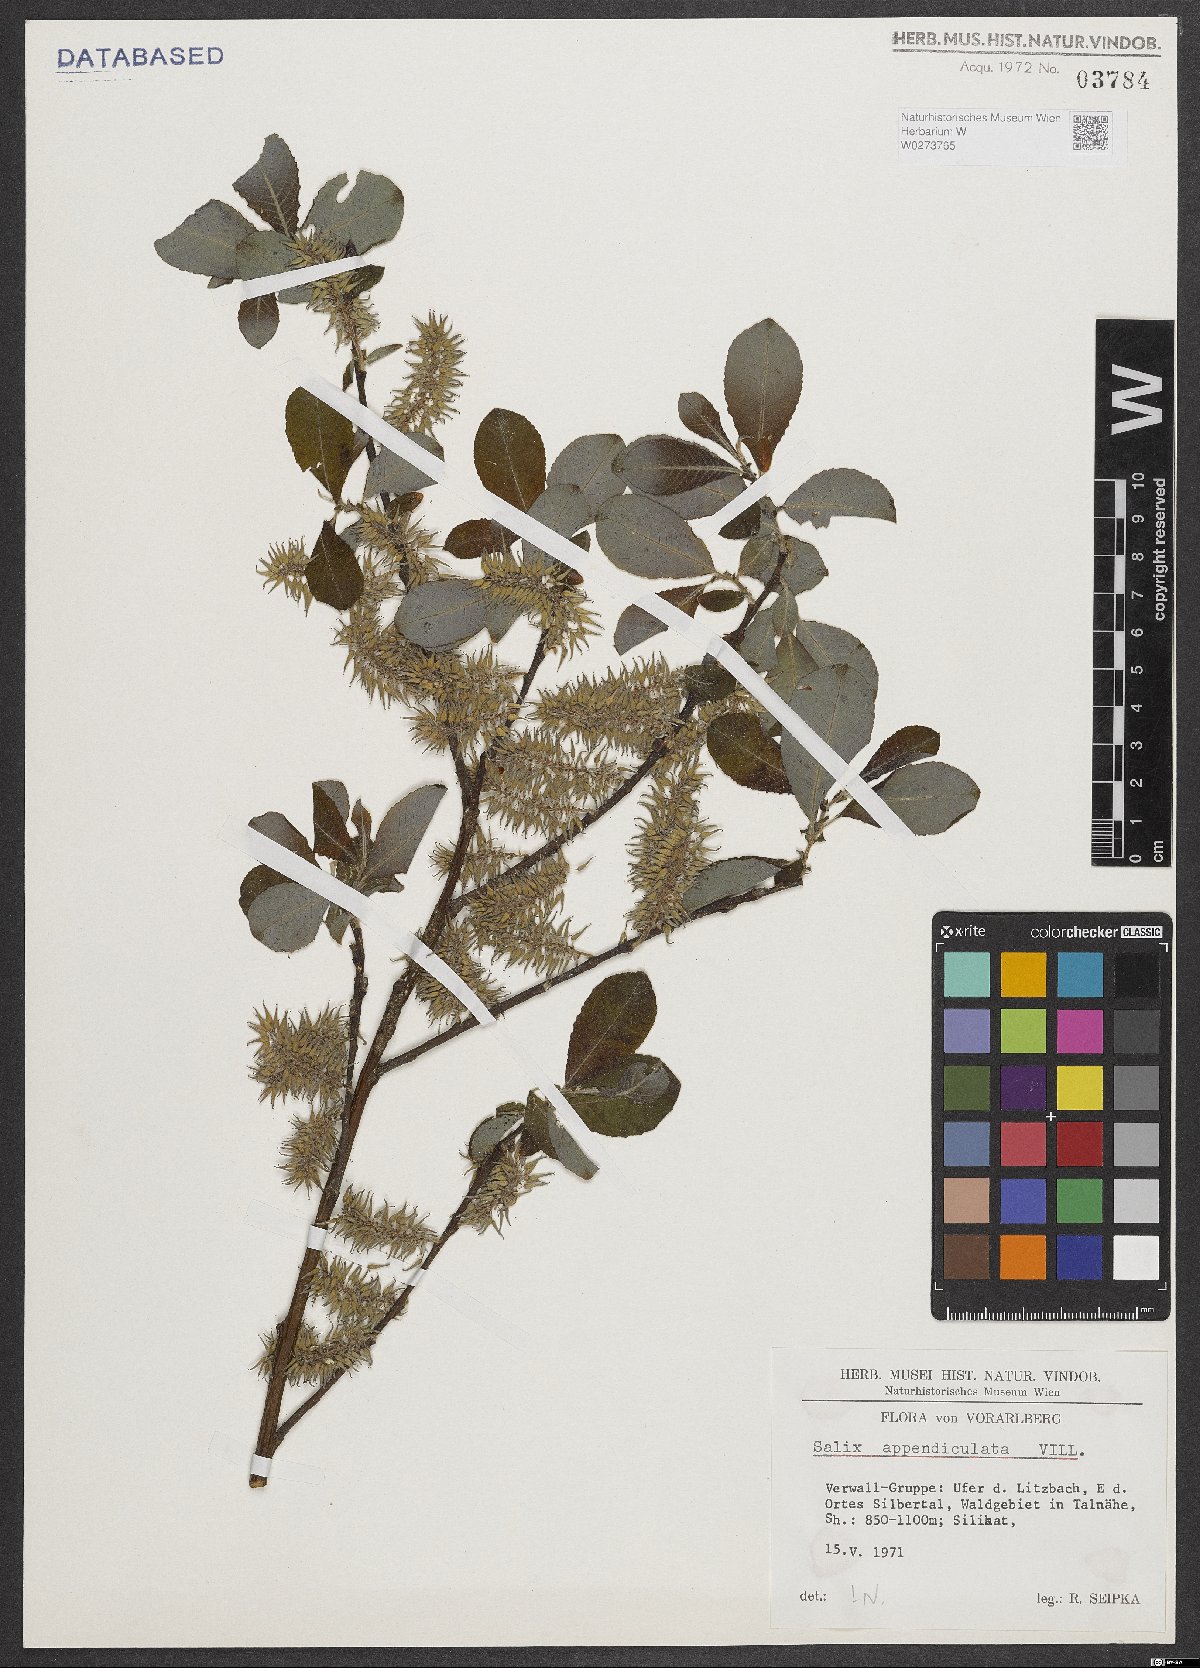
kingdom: Plantae
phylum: Tracheophyta
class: Magnoliopsida
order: Malpighiales
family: Salicaceae
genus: Salix
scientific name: Salix appendiculata
